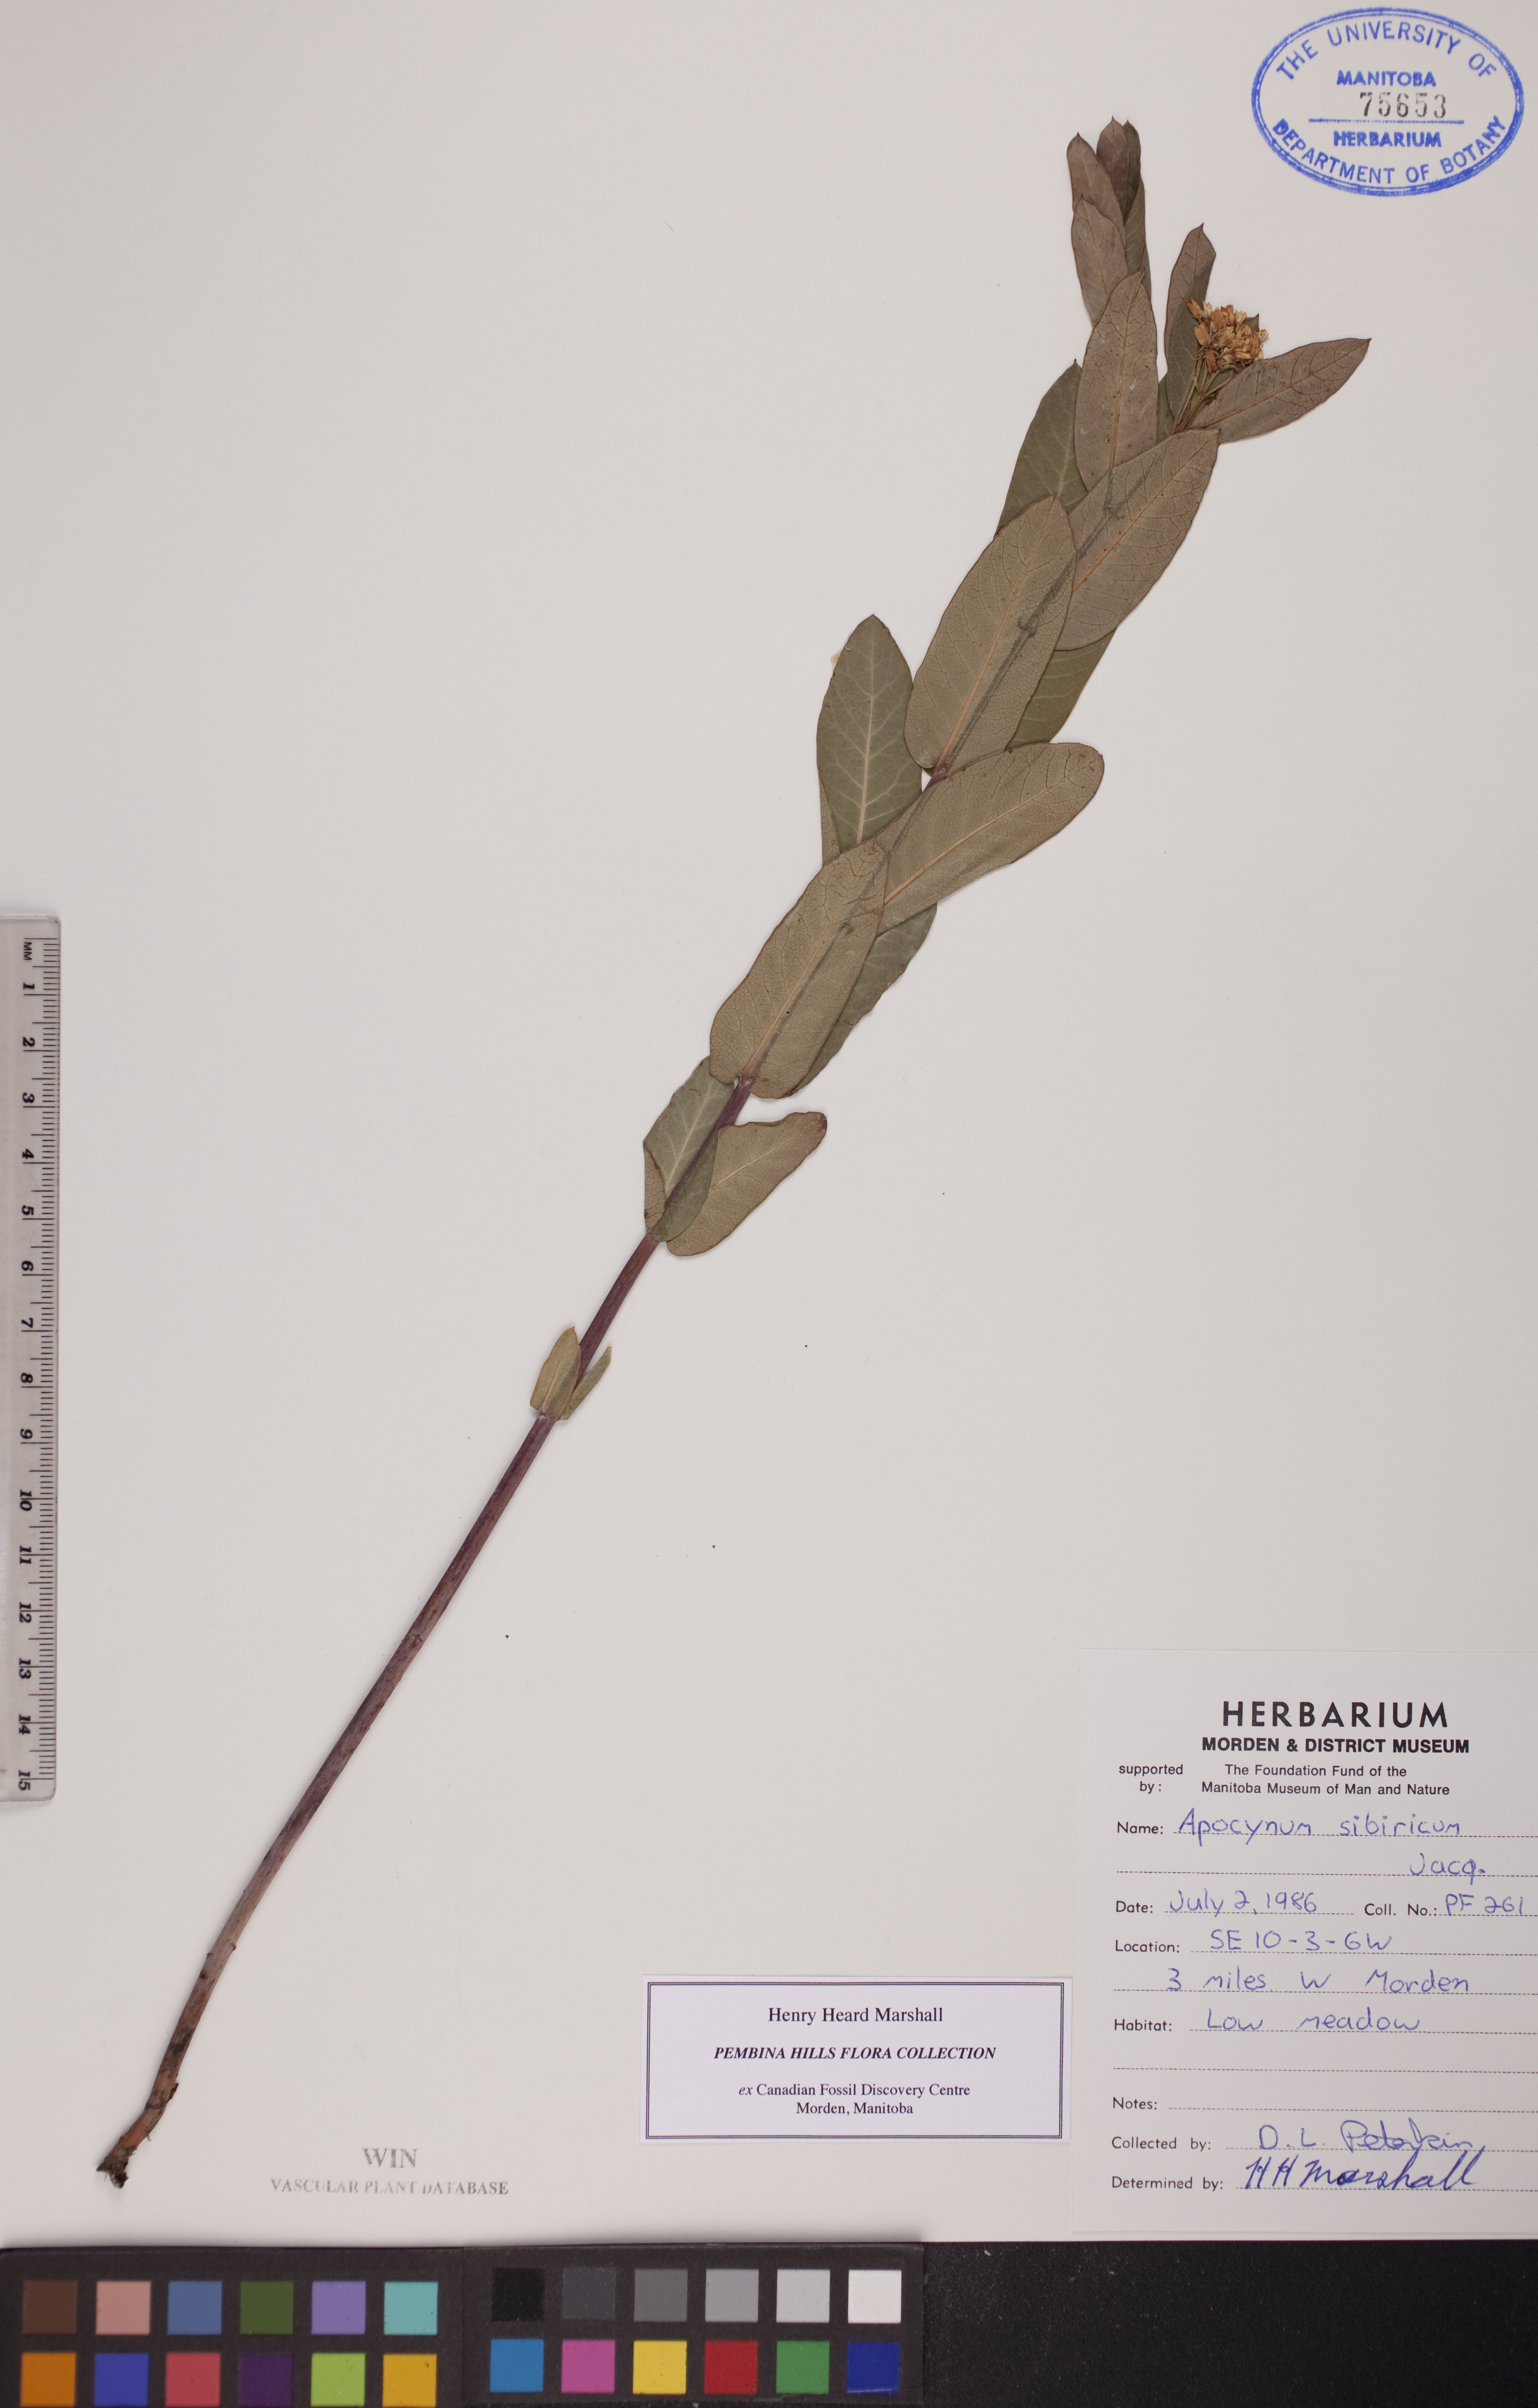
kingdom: Plantae
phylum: Tracheophyta
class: Magnoliopsida
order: Gentianales
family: Apocynaceae
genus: Apocynum
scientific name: Apocynum cannabinum
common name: Hemp dogbane
